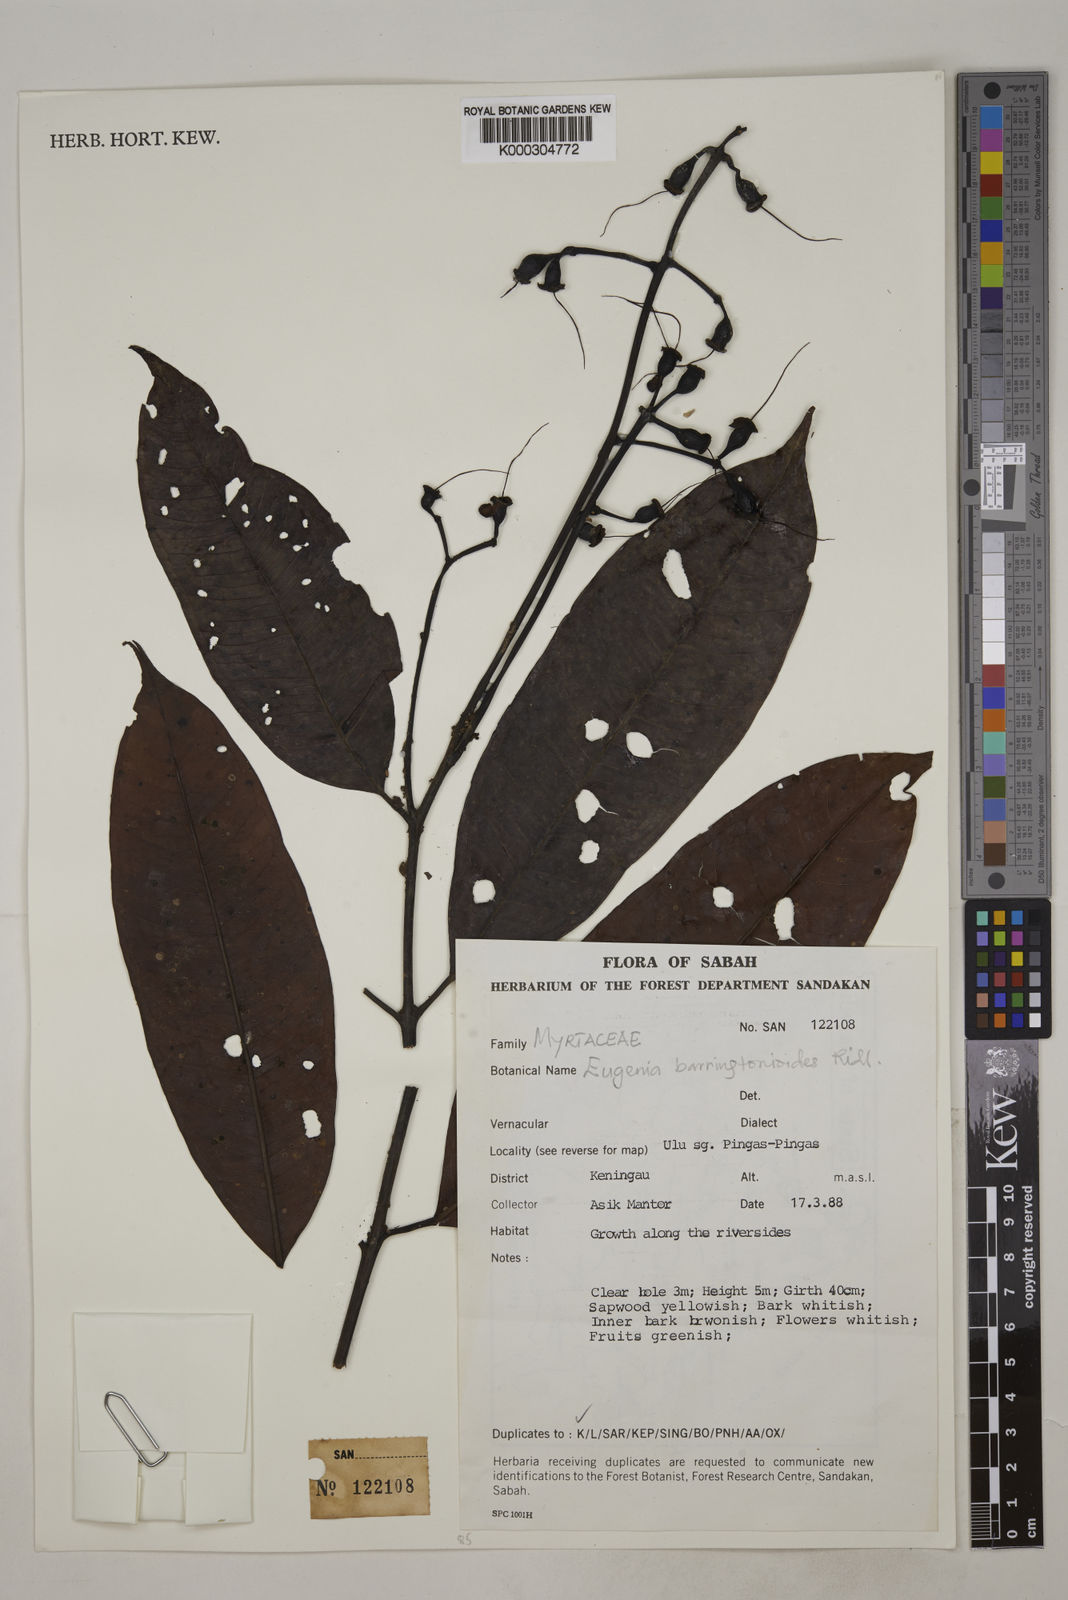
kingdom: Plantae
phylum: Tracheophyta
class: Magnoliopsida
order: Myrtales
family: Myrtaceae
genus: Syzygium
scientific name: Syzygium barringtonioides
